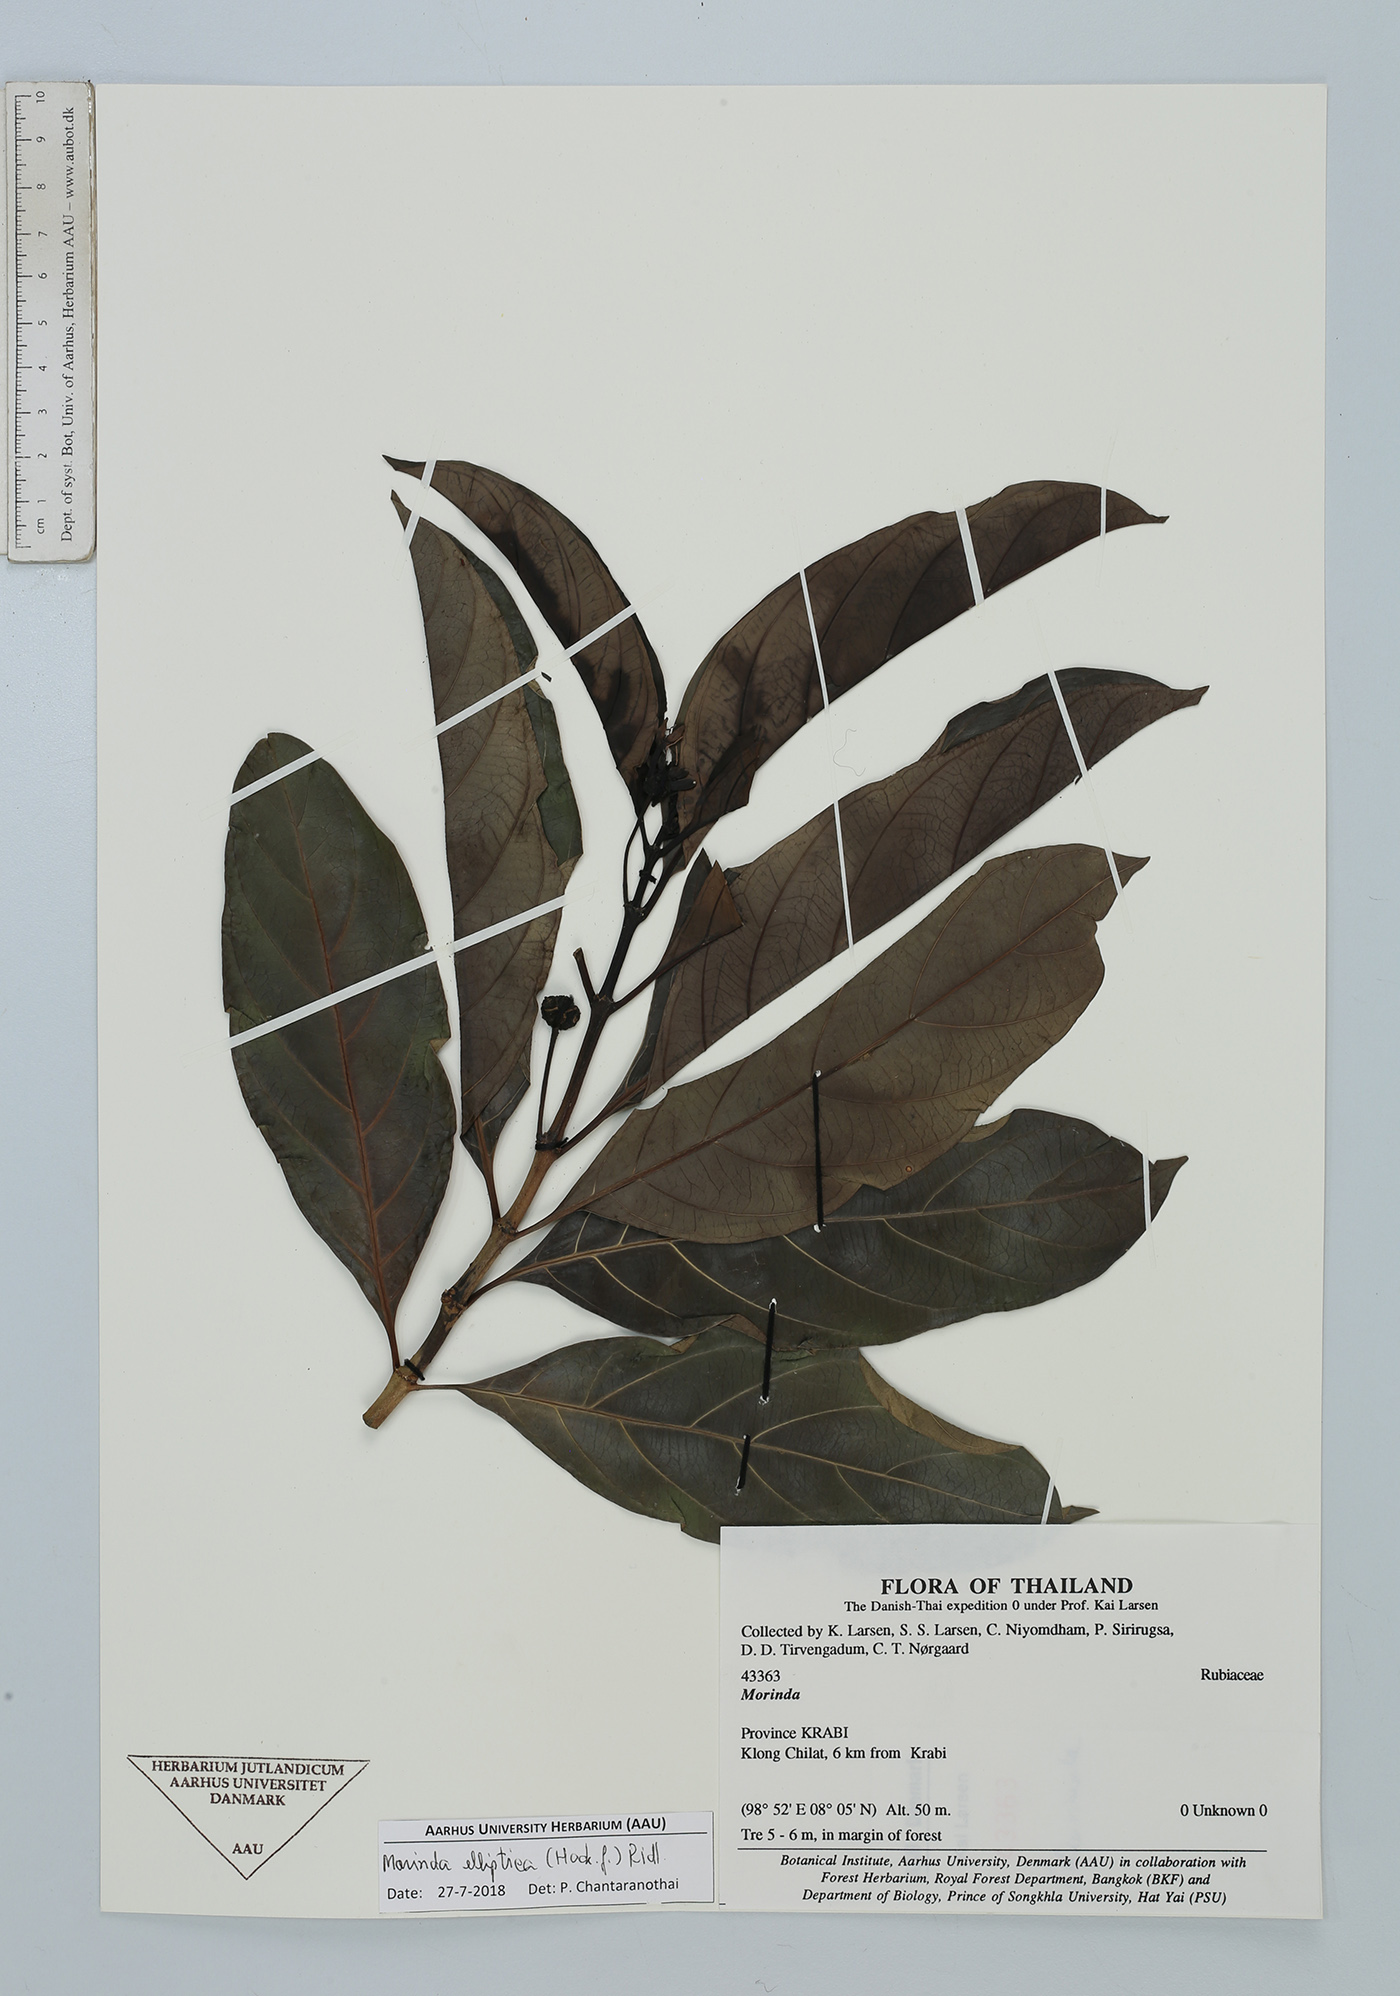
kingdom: Plantae
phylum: Tracheophyta
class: Magnoliopsida
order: Gentianales
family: Rubiaceae
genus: Morinda
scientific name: Morinda elliptica
